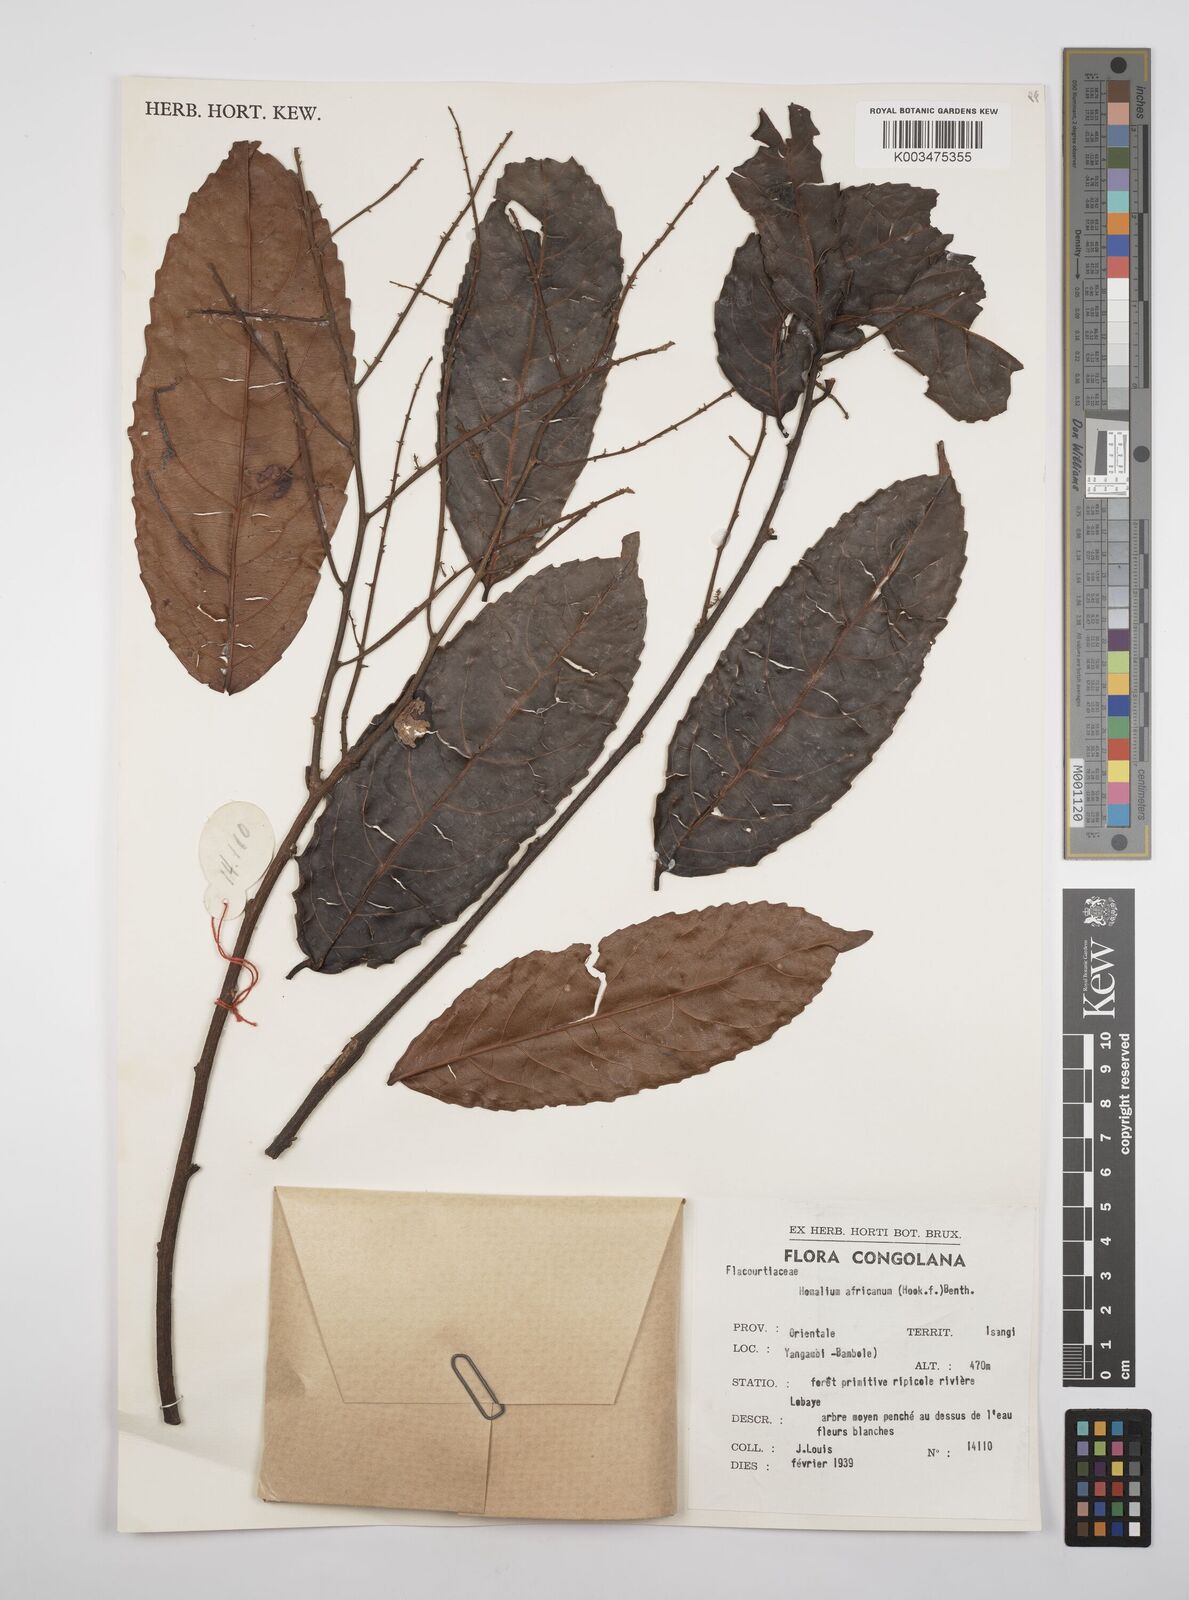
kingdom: Plantae
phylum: Tracheophyta
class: Magnoliopsida
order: Malpighiales
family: Salicaceae
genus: Homalium
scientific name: Homalium africanum
